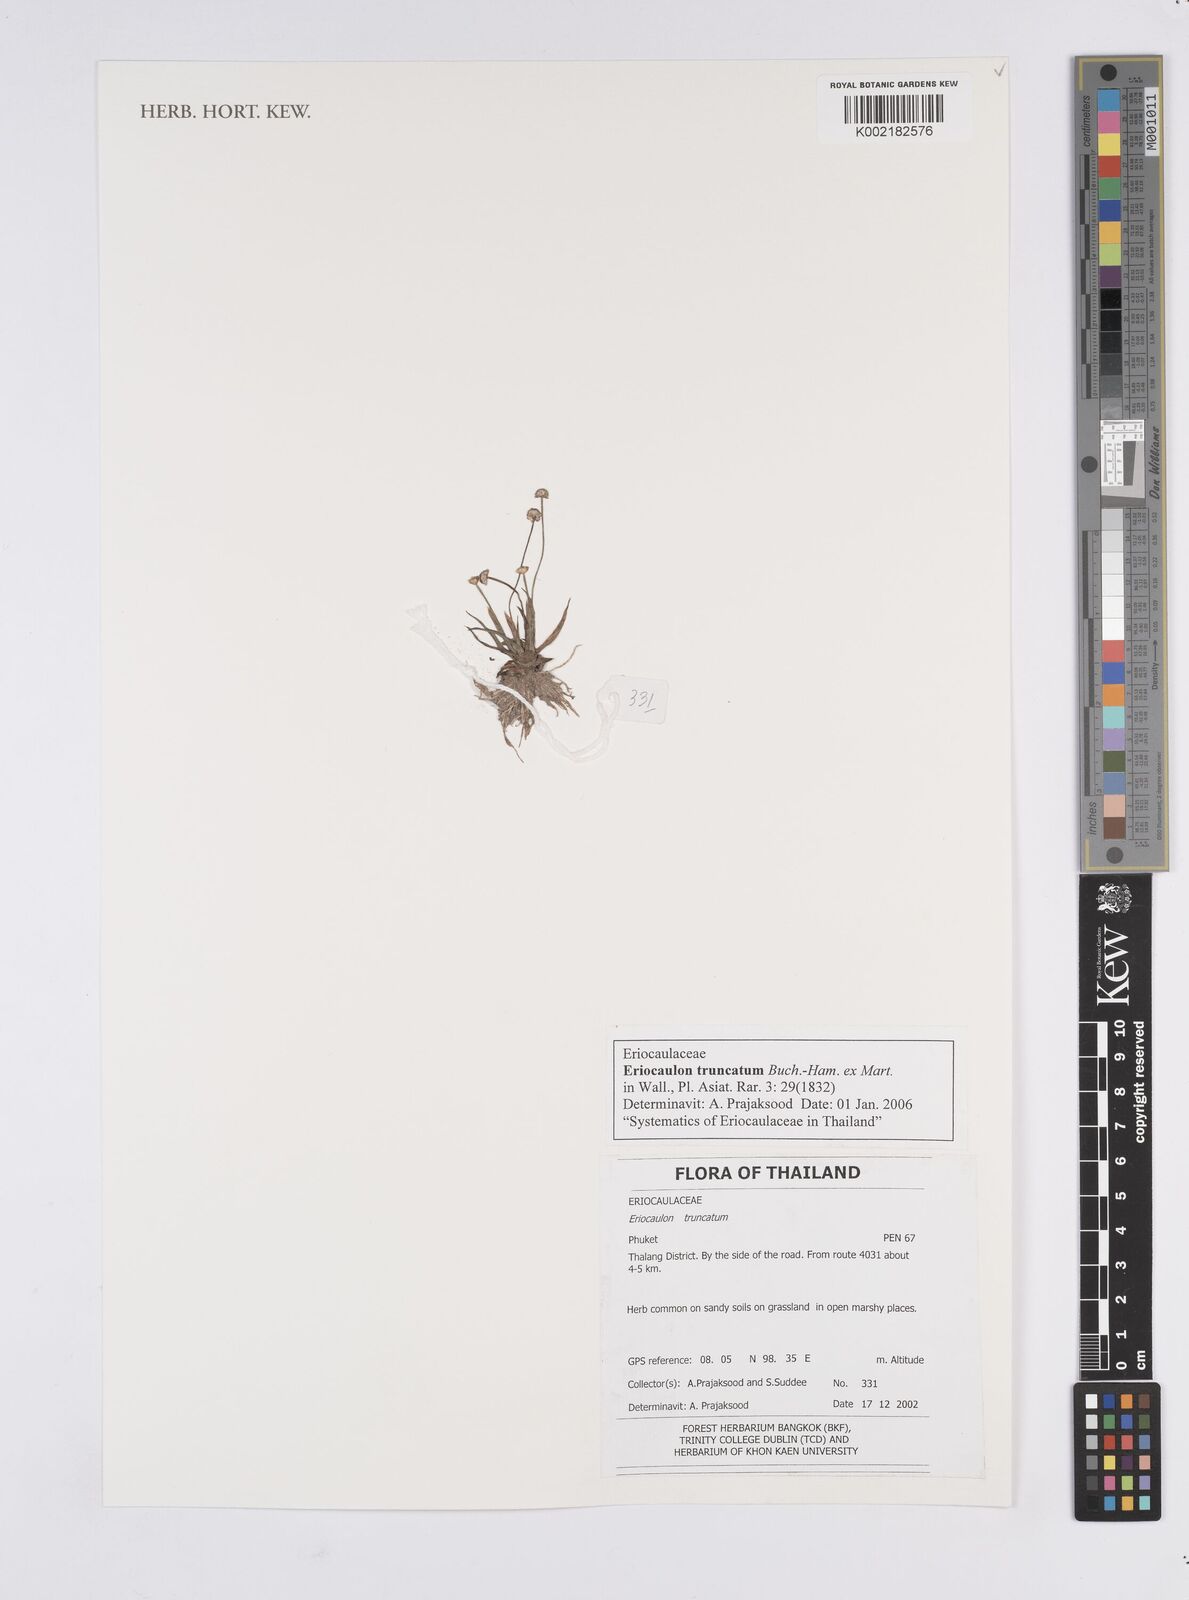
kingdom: Plantae
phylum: Tracheophyta
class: Liliopsida
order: Poales
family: Eriocaulaceae
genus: Eriocaulon
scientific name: Eriocaulon truncatum
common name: Short pipe-wort
